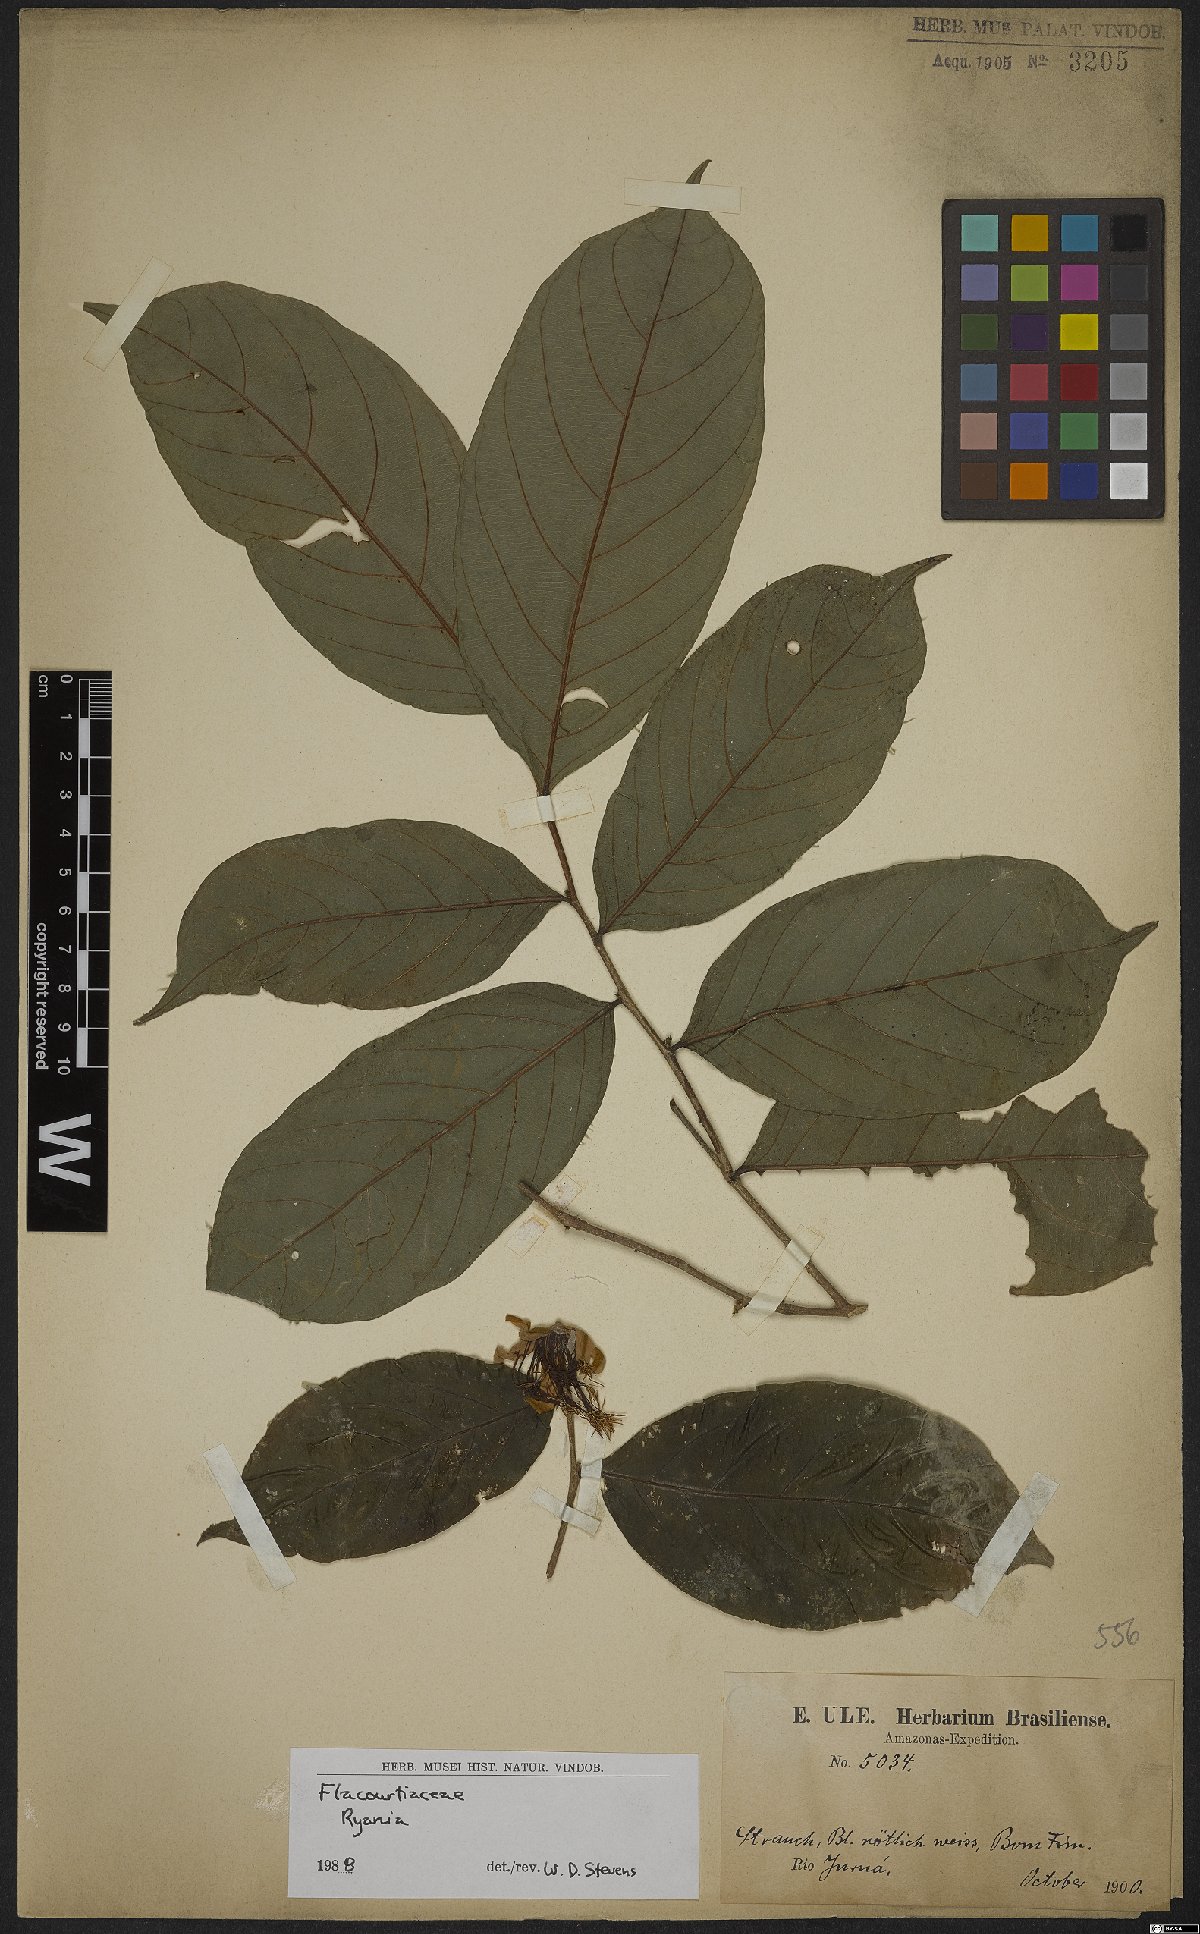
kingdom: Plantae
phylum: Tracheophyta
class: Magnoliopsida
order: Malpighiales
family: Salicaceae
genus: Ryania
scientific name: Ryania
